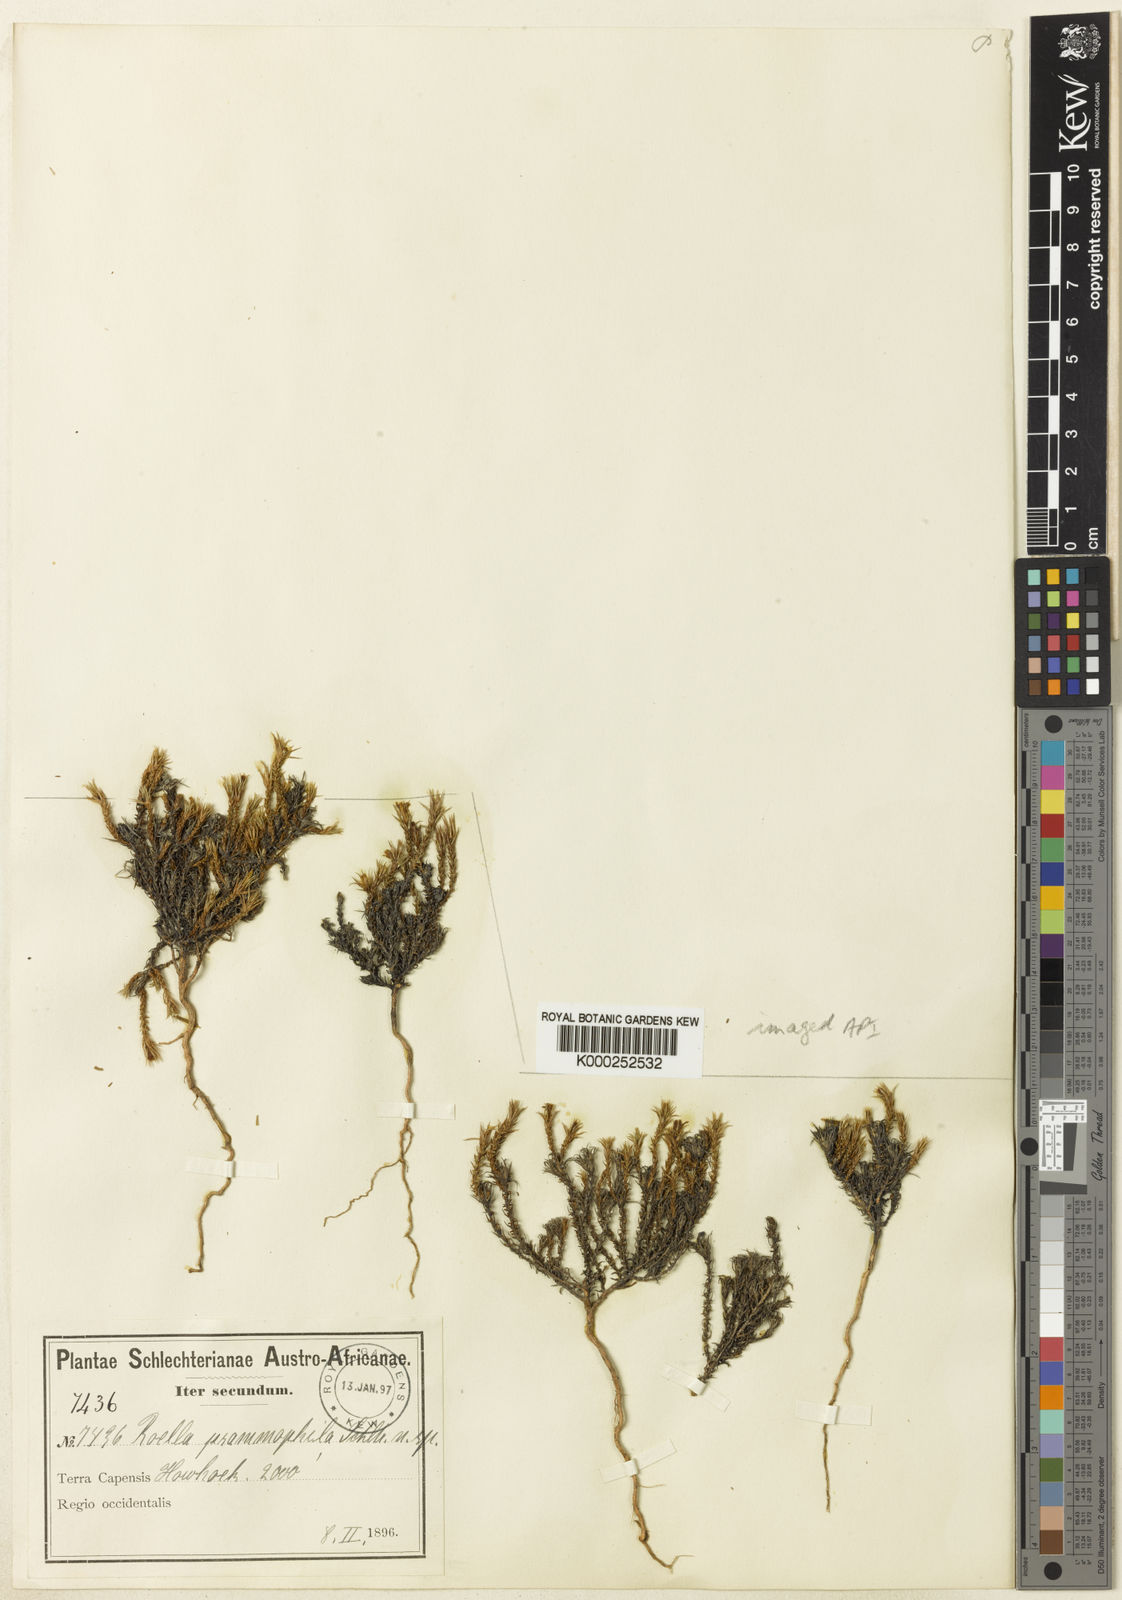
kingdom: Plantae
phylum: Tracheophyta
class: Magnoliopsida
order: Asterales
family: Campanulaceae
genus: Roella
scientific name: Roella dregeana
